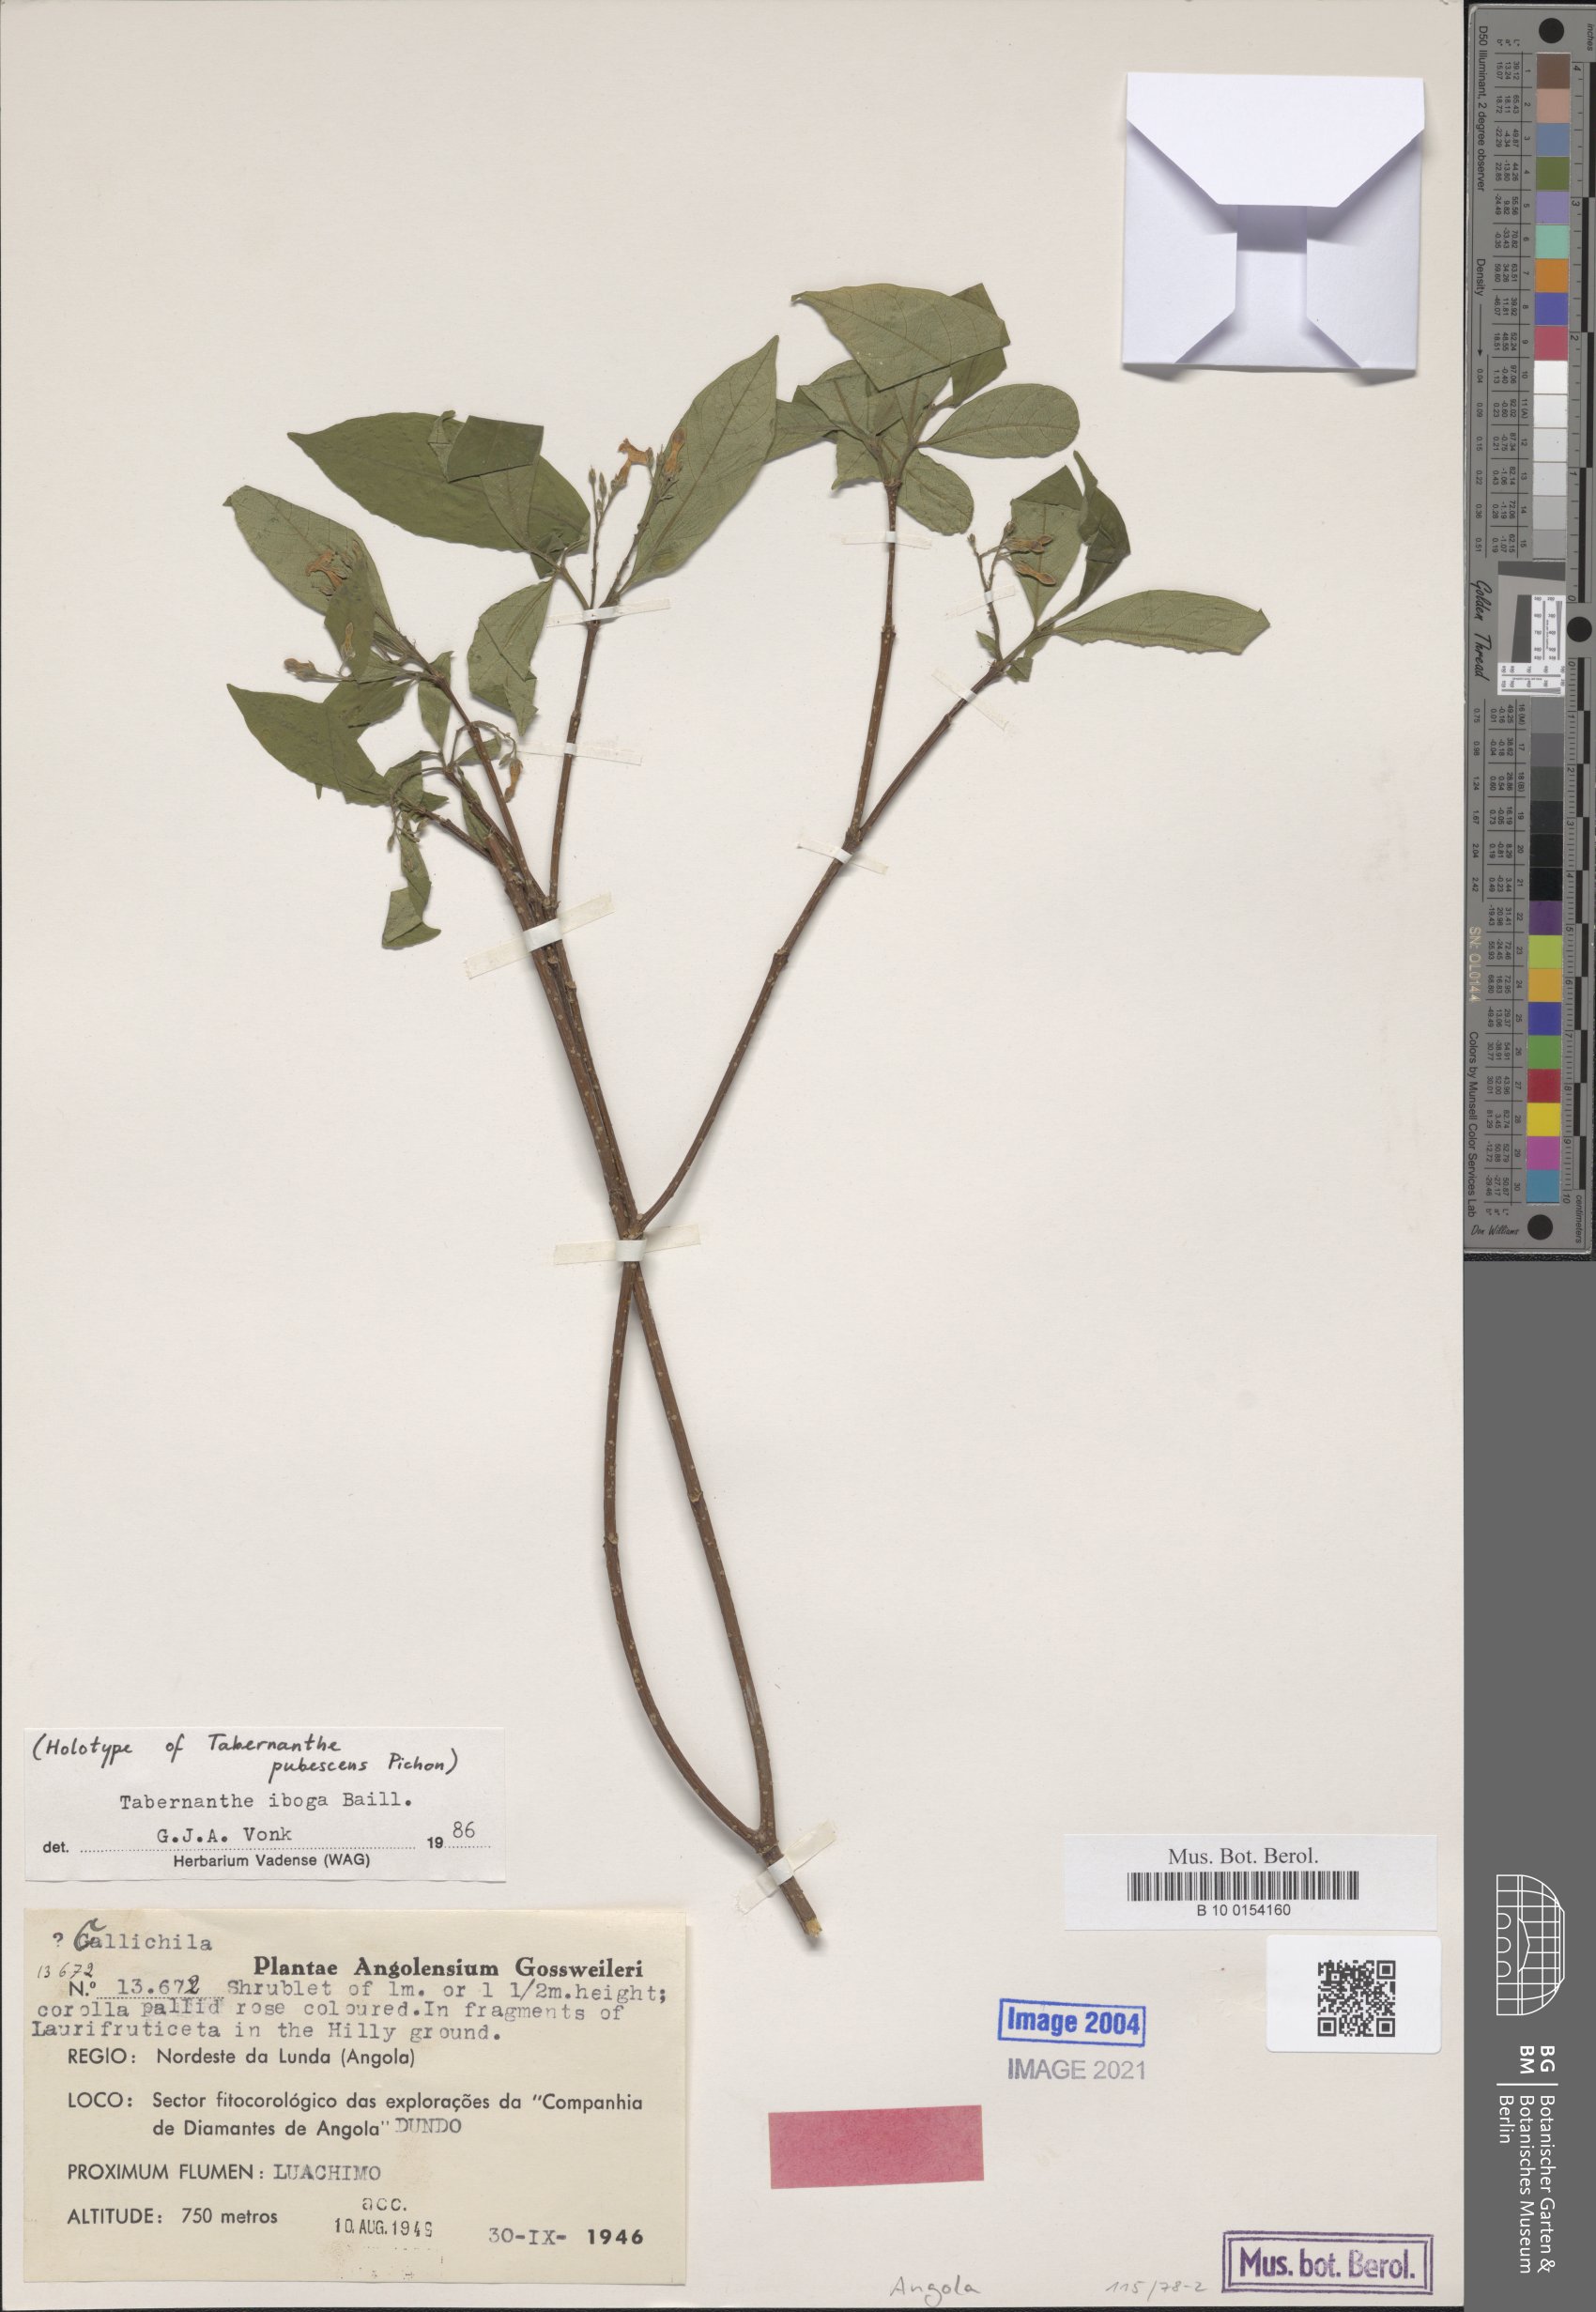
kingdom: Plantae
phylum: Tracheophyta
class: Magnoliopsida
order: Gentianales
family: Apocynaceae
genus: Tabernanthe
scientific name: Tabernanthe iboga
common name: Bitter-grass
